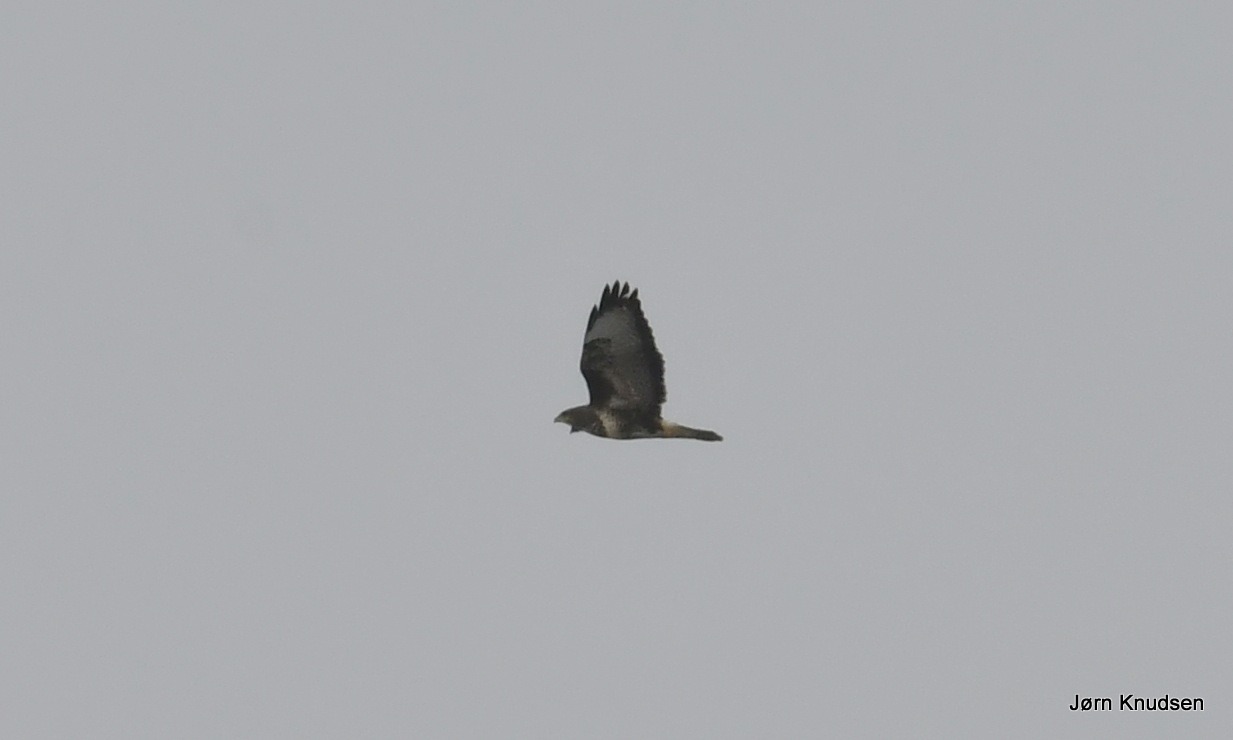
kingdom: Animalia
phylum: Chordata
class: Aves
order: Accipitriformes
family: Accipitridae
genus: Buteo
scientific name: Buteo buteo
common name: Musvåge
